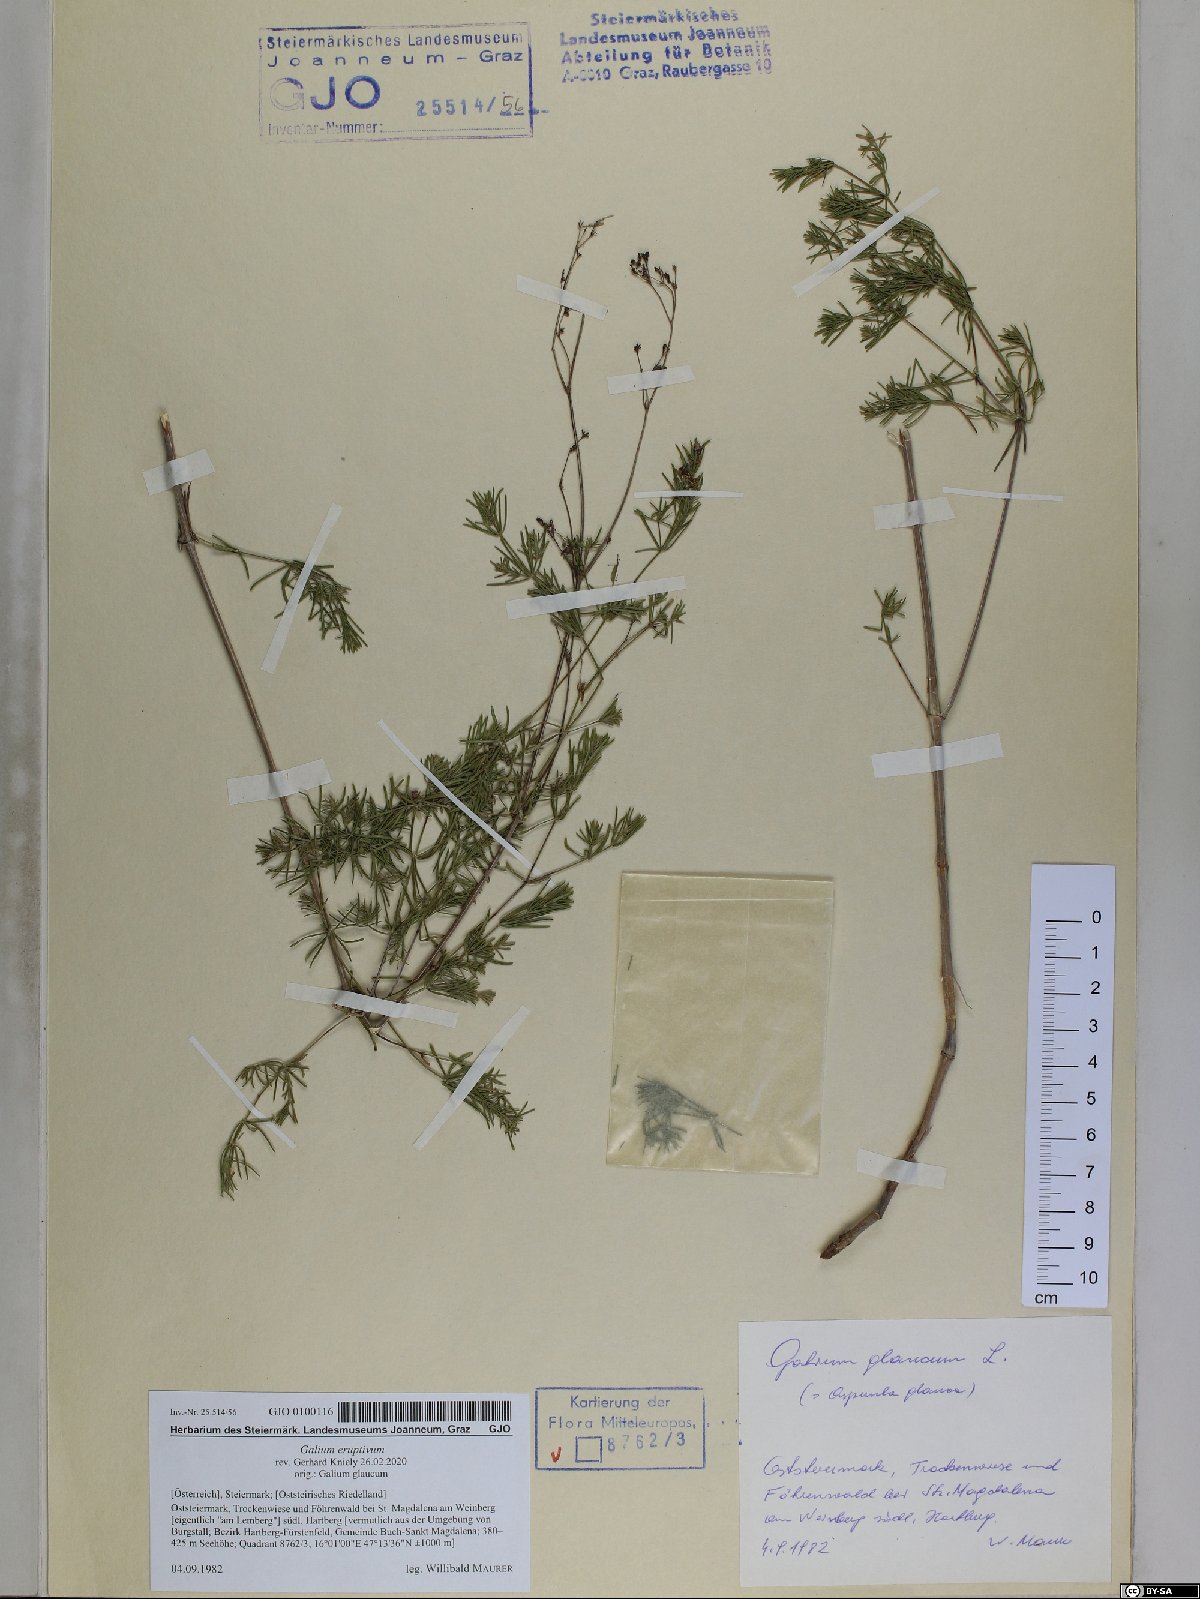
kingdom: Plantae
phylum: Tracheophyta
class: Magnoliopsida
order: Gentianales
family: Rubiaceae
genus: Galium
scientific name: Galium eruptivum
